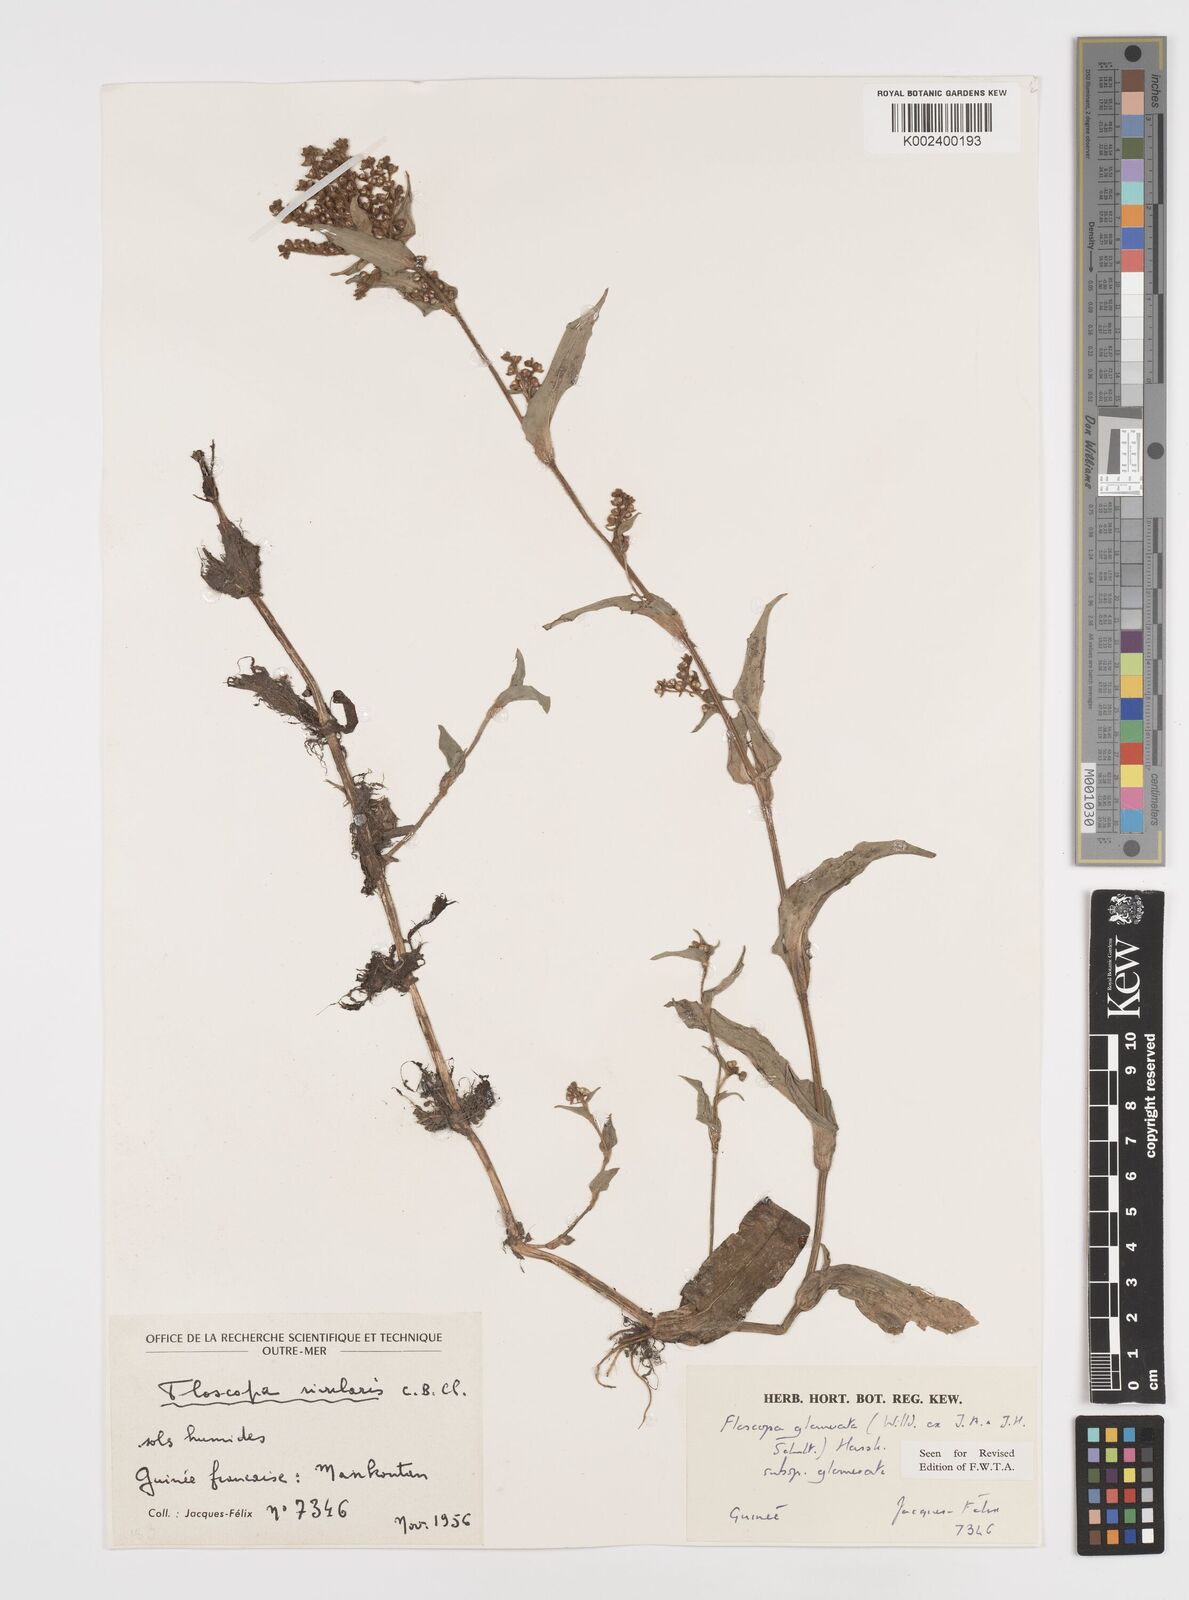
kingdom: Plantae
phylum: Tracheophyta
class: Liliopsida
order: Commelinales
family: Commelinaceae
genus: Floscopa
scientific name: Floscopa glomerata
